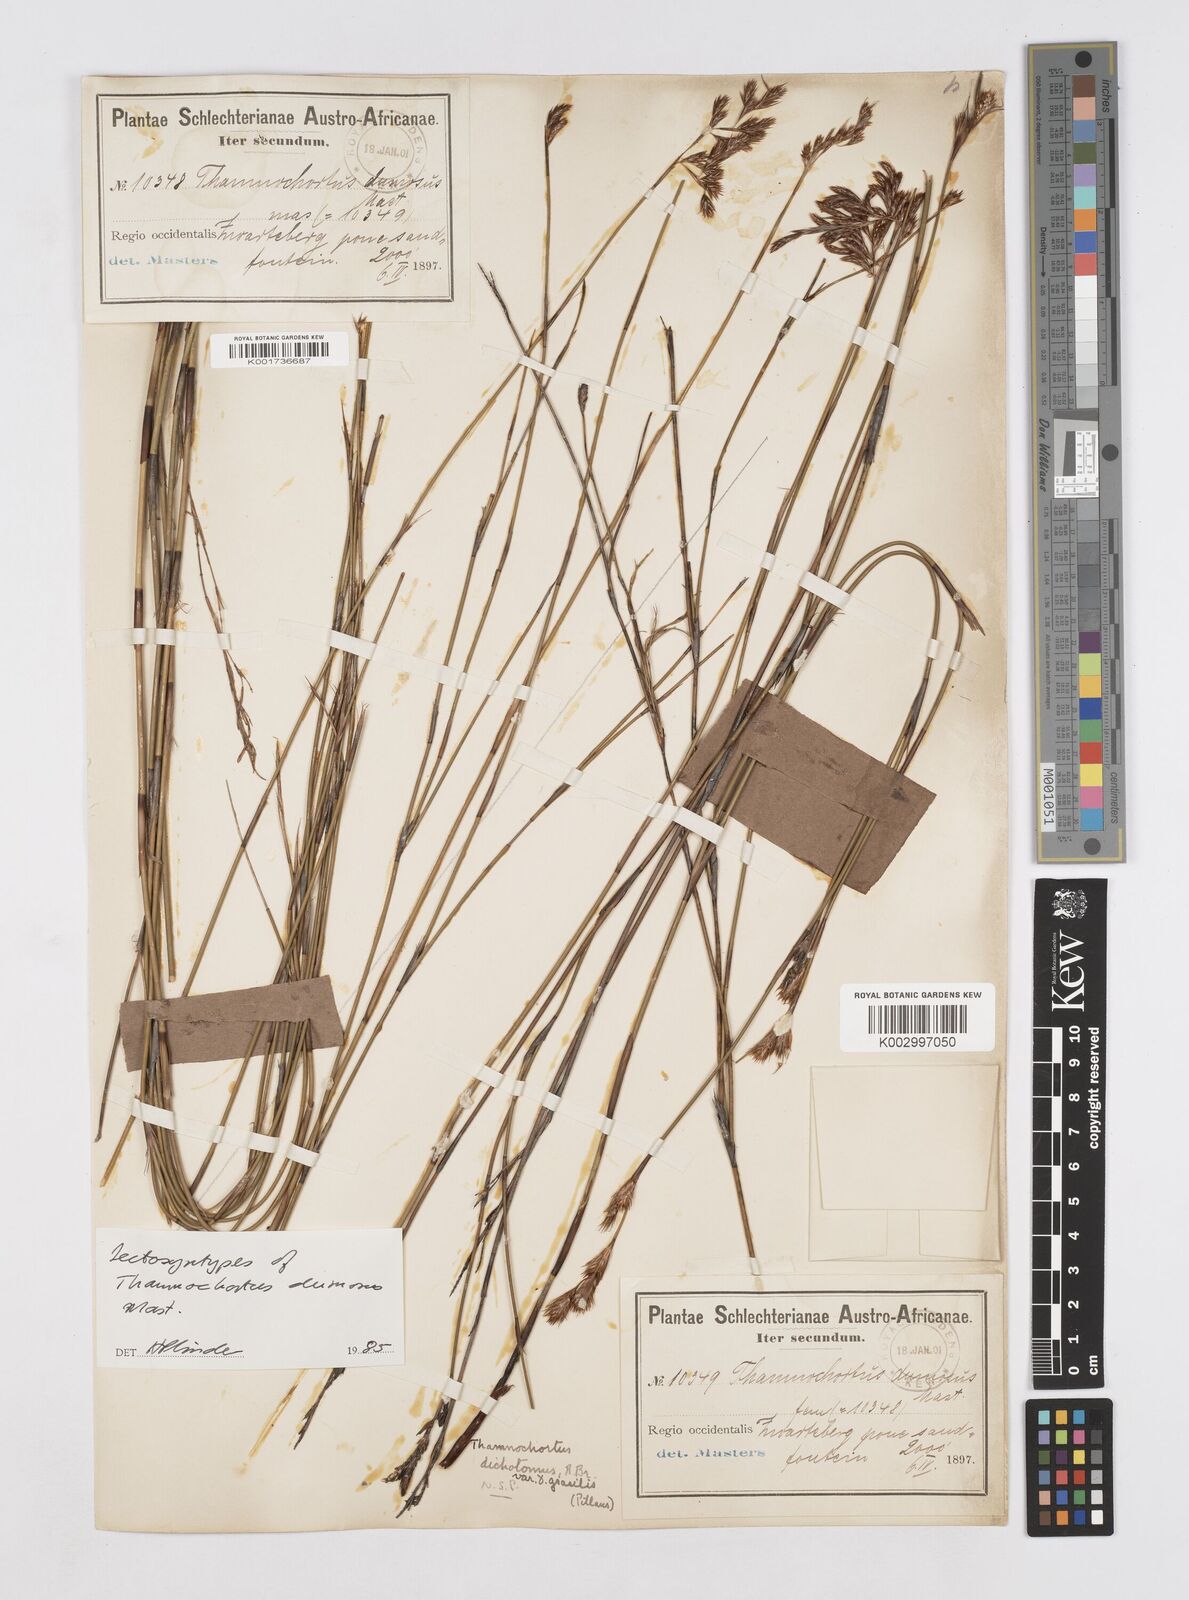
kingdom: Plantae
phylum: Tracheophyta
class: Liliopsida
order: Poales
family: Restionaceae
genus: Thamnochortus
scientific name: Thamnochortus gracilis
